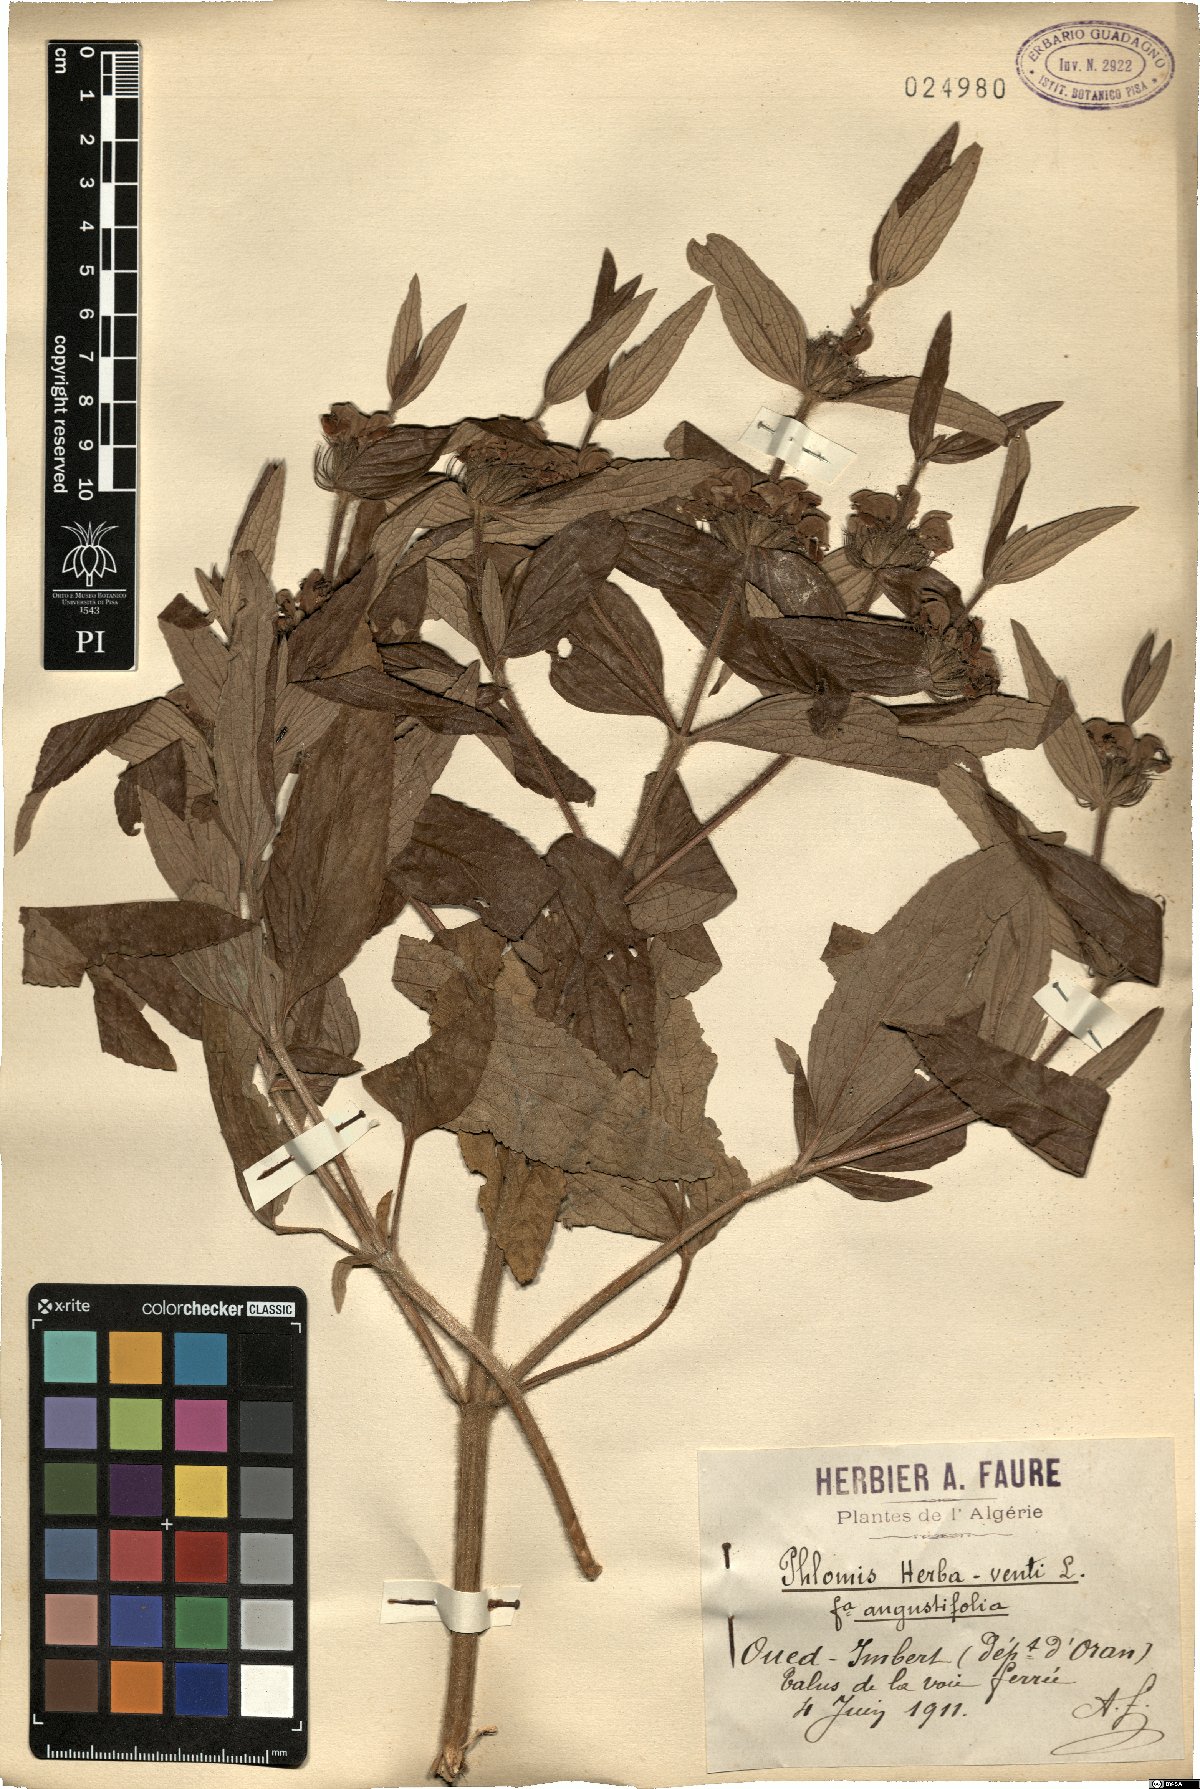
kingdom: Plantae
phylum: Tracheophyta
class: Magnoliopsida
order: Lamiales
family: Lamiaceae
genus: Phlomis
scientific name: Phlomis herba-venti
